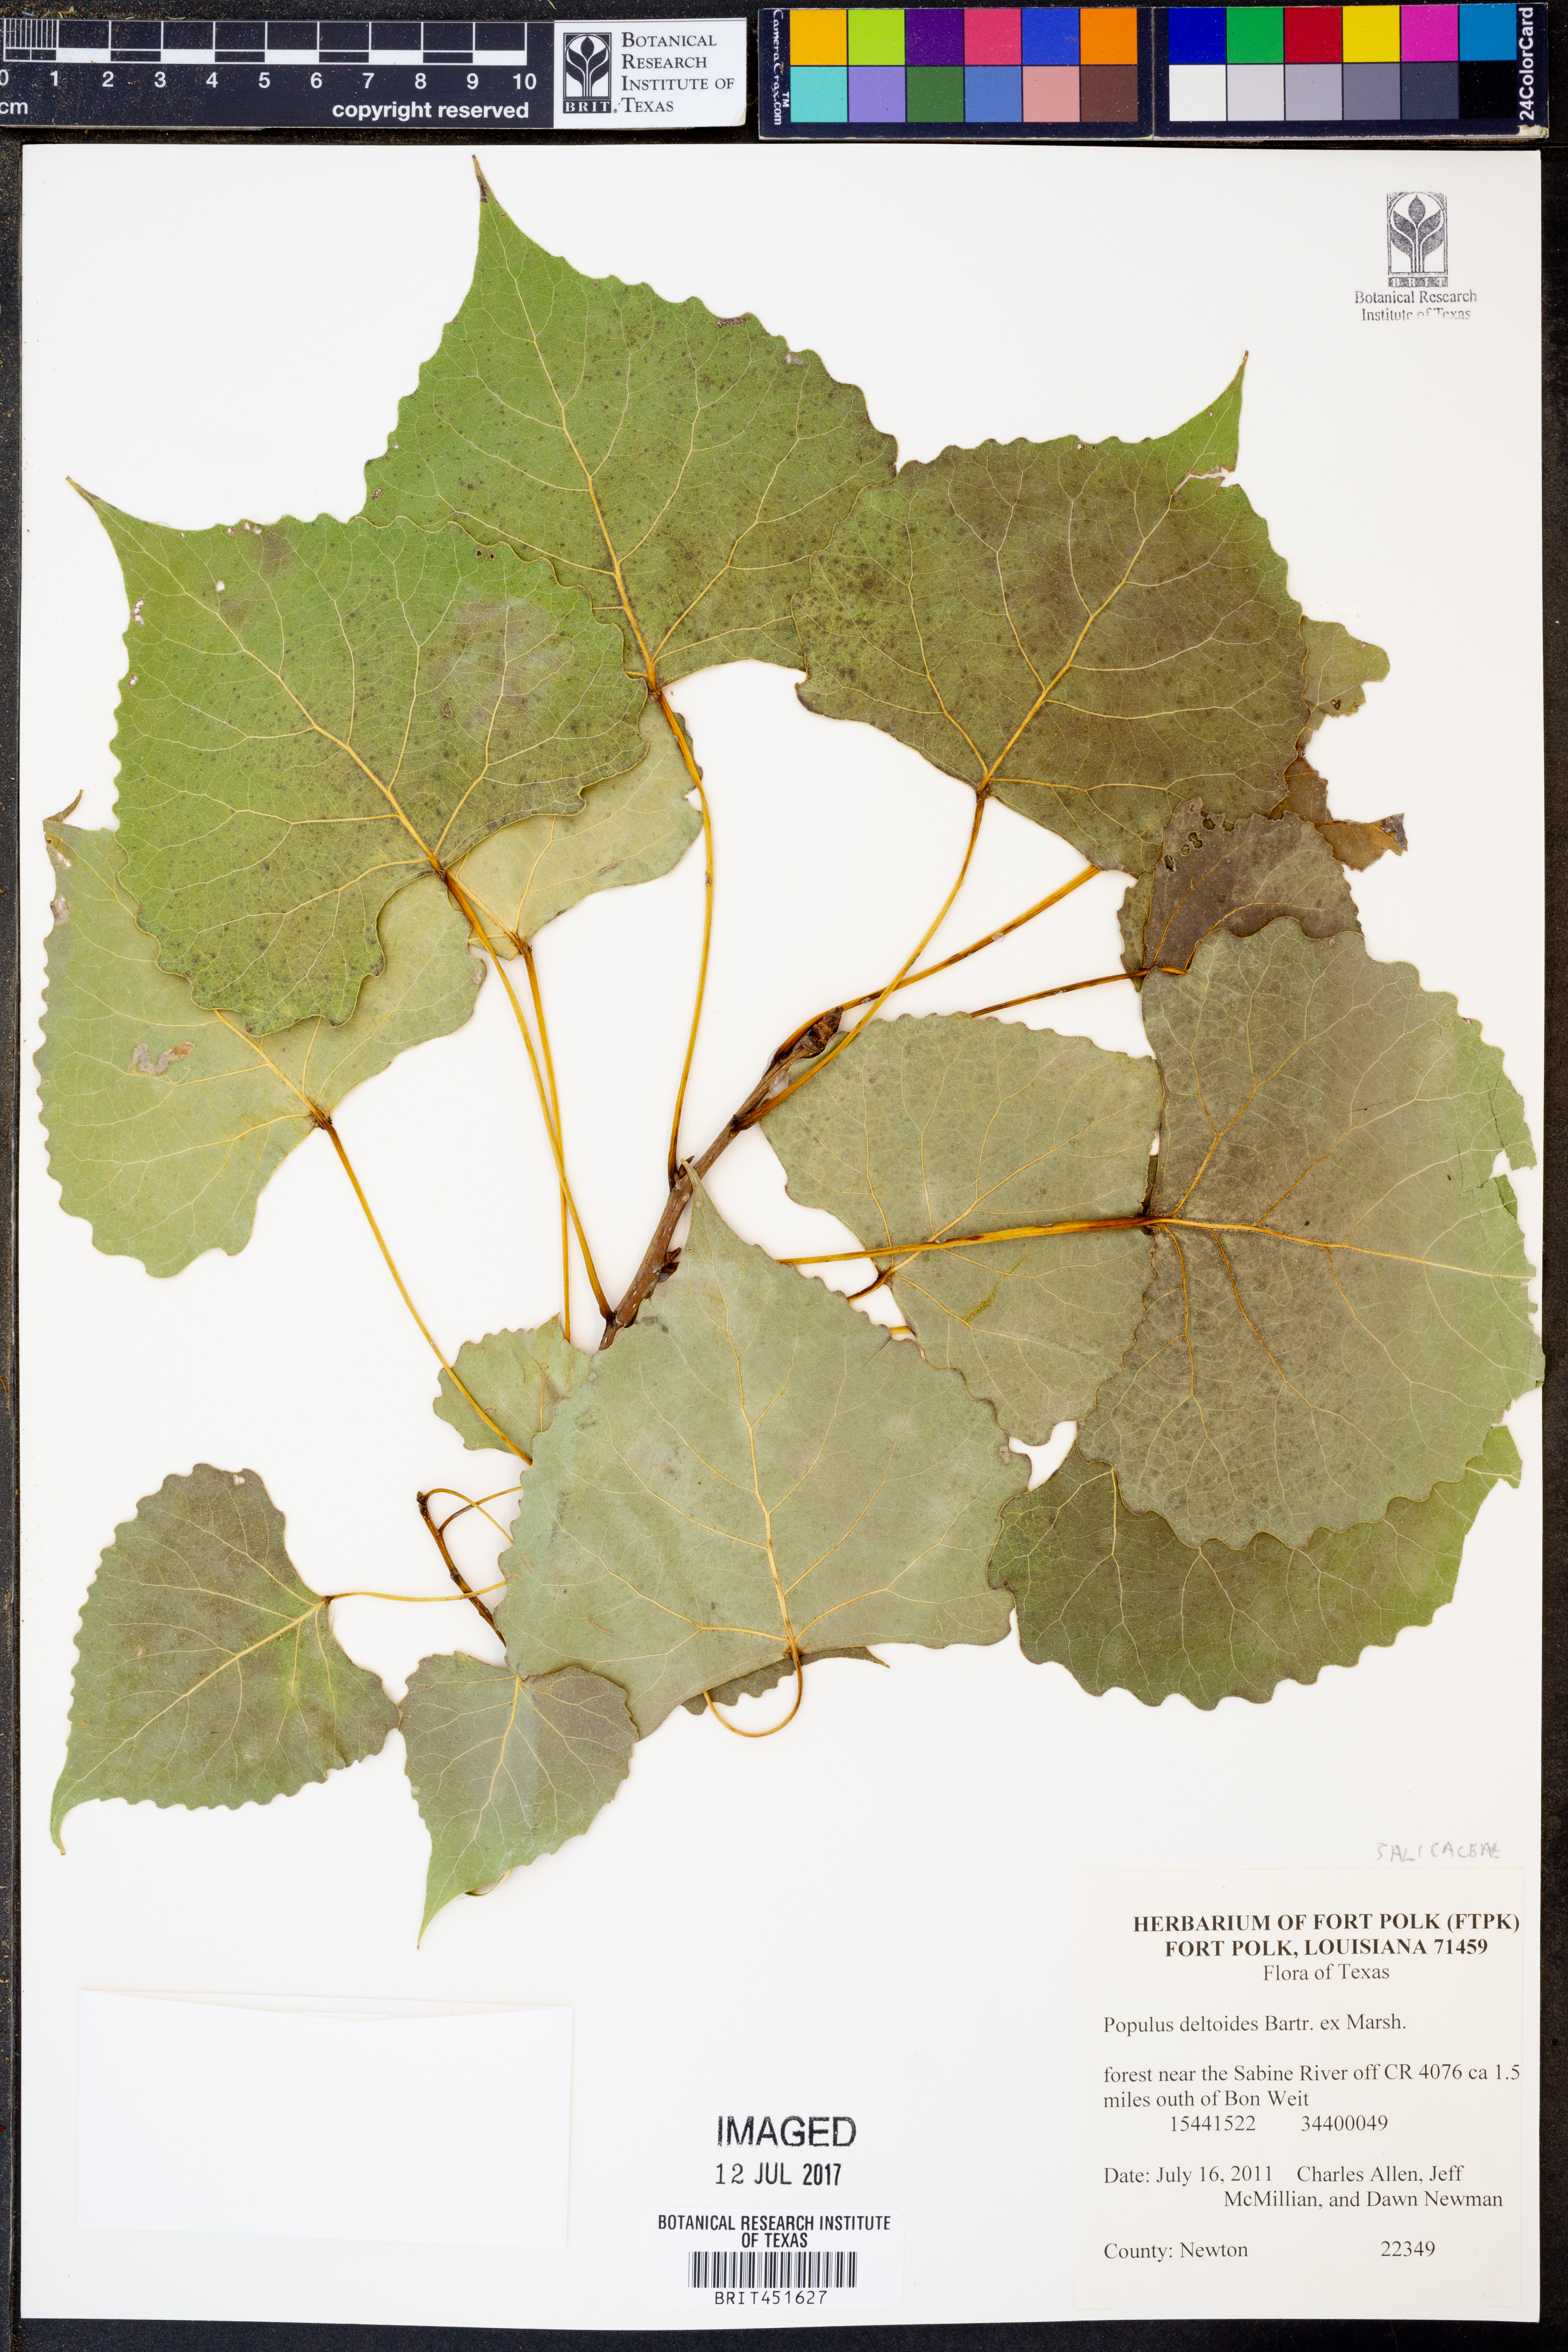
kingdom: Plantae
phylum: Tracheophyta
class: Magnoliopsida
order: Malpighiales
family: Salicaceae
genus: Populus
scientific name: Populus deltoides
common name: Eastern cottonwood
